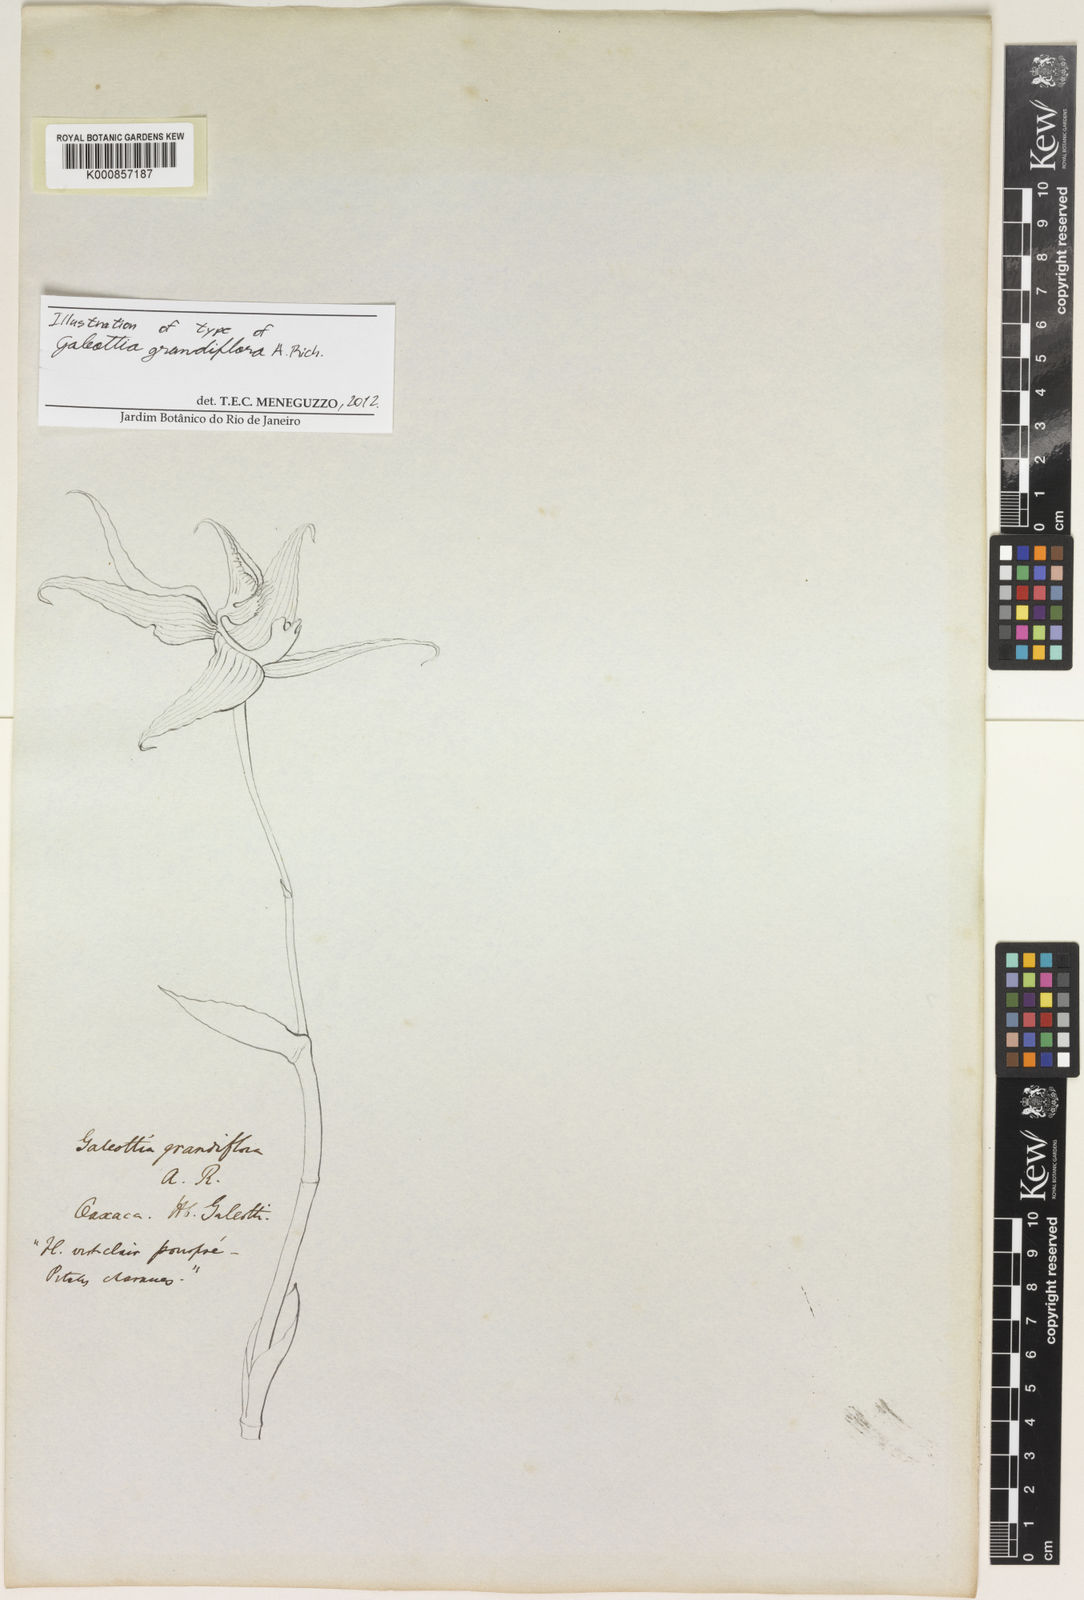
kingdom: Plantae
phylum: Tracheophyta
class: Liliopsida
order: Asparagales
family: Orchidaceae
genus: Galeottia
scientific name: Galeottia grandiflora
